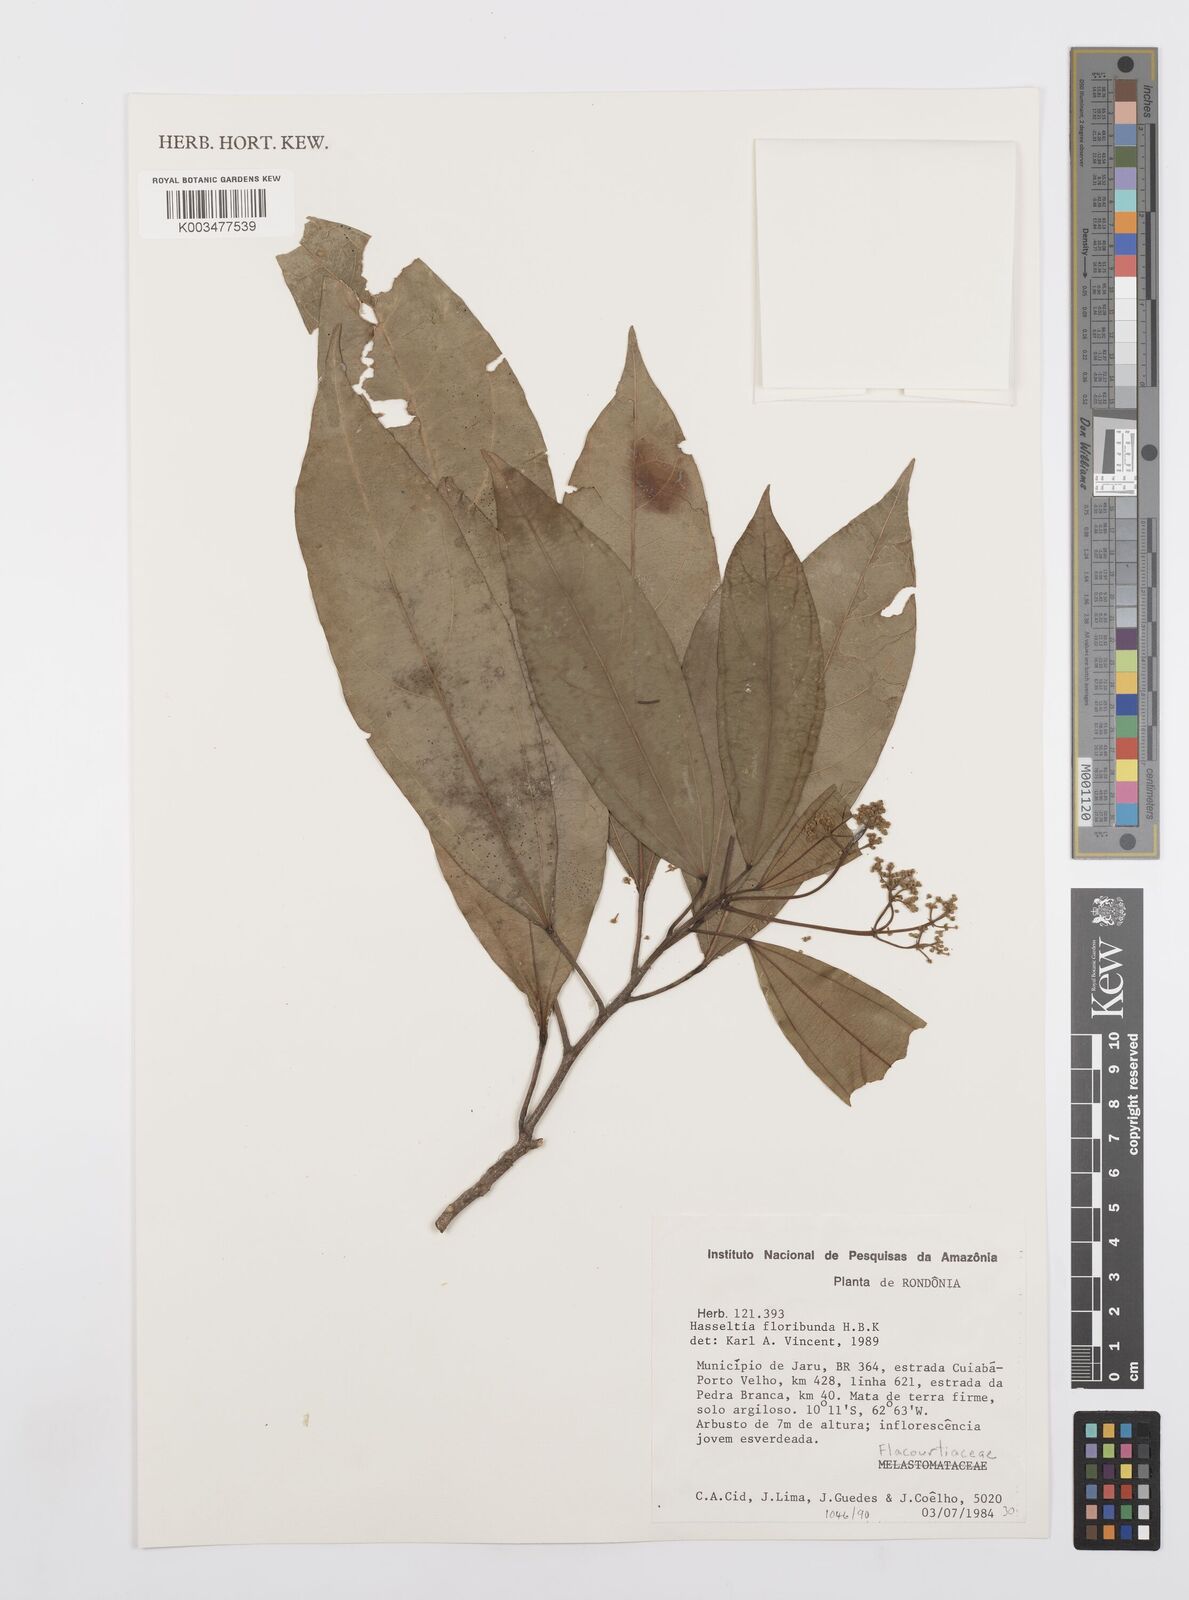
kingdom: Plantae
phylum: Tracheophyta
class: Magnoliopsida
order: Malpighiales
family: Salicaceae
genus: Hasseltia
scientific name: Hasseltia floribunda
